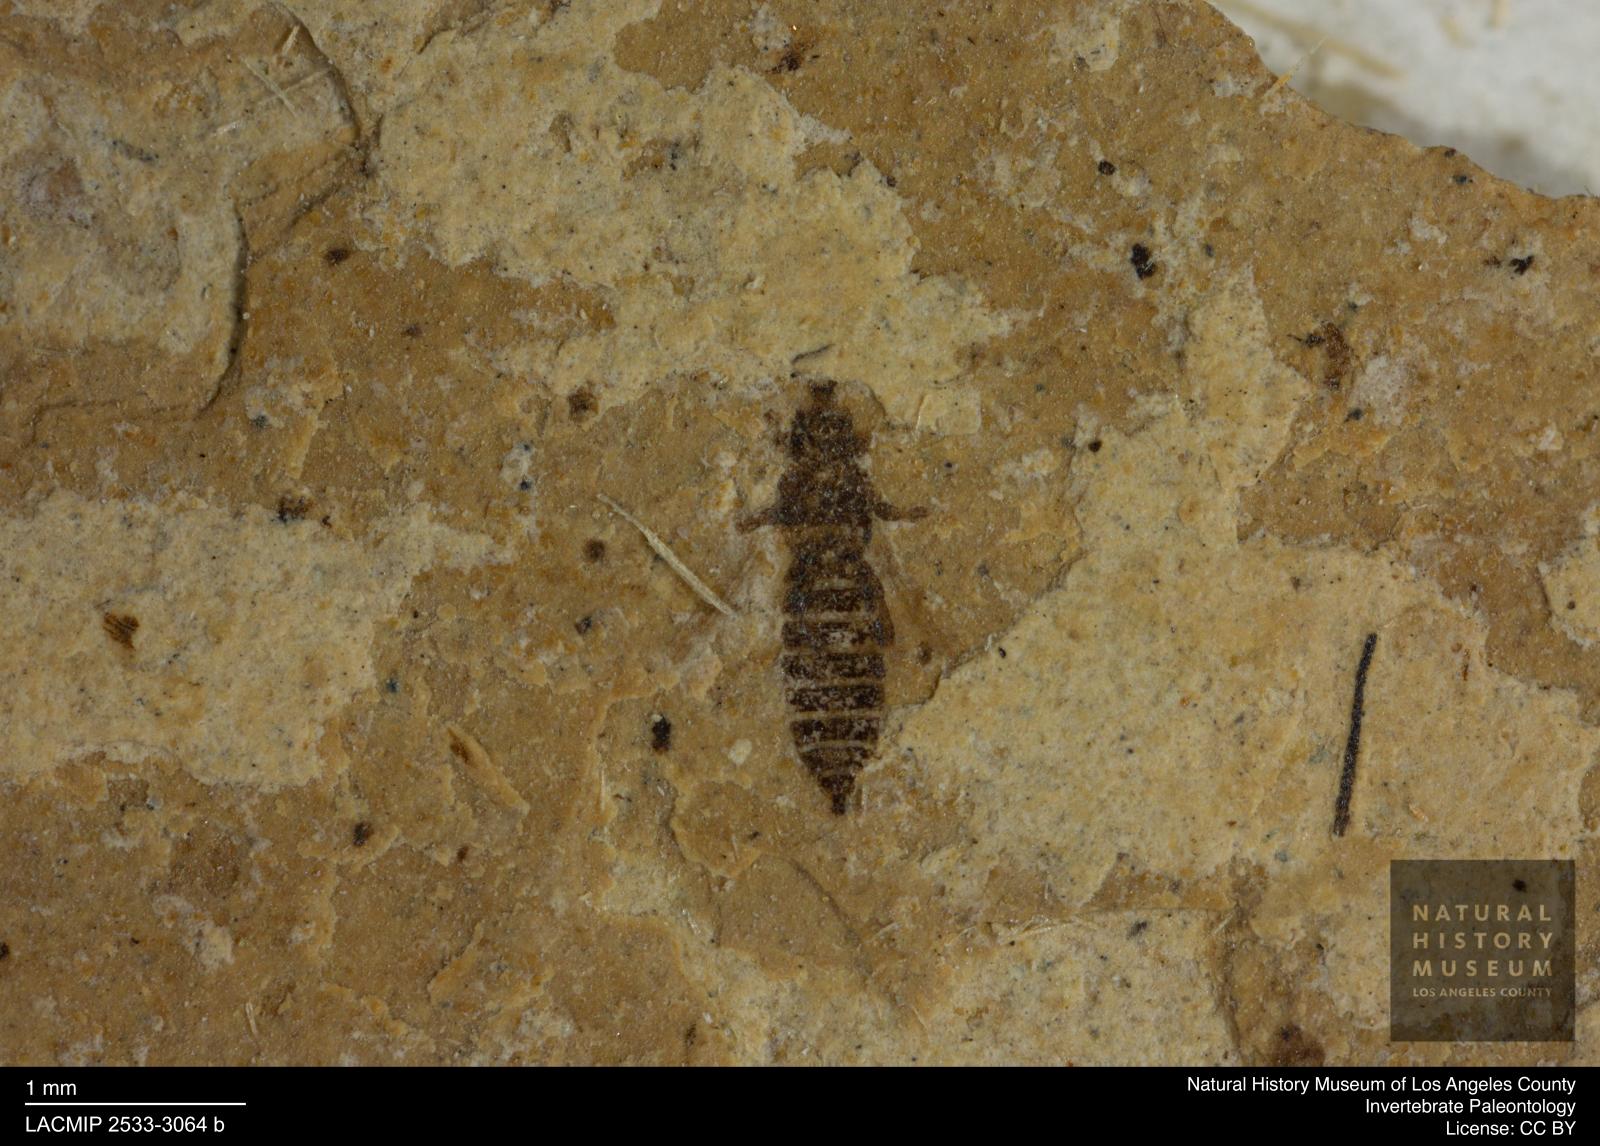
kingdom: Animalia
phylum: Arthropoda
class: Insecta
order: Thysanoptera
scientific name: Thysanoptera
